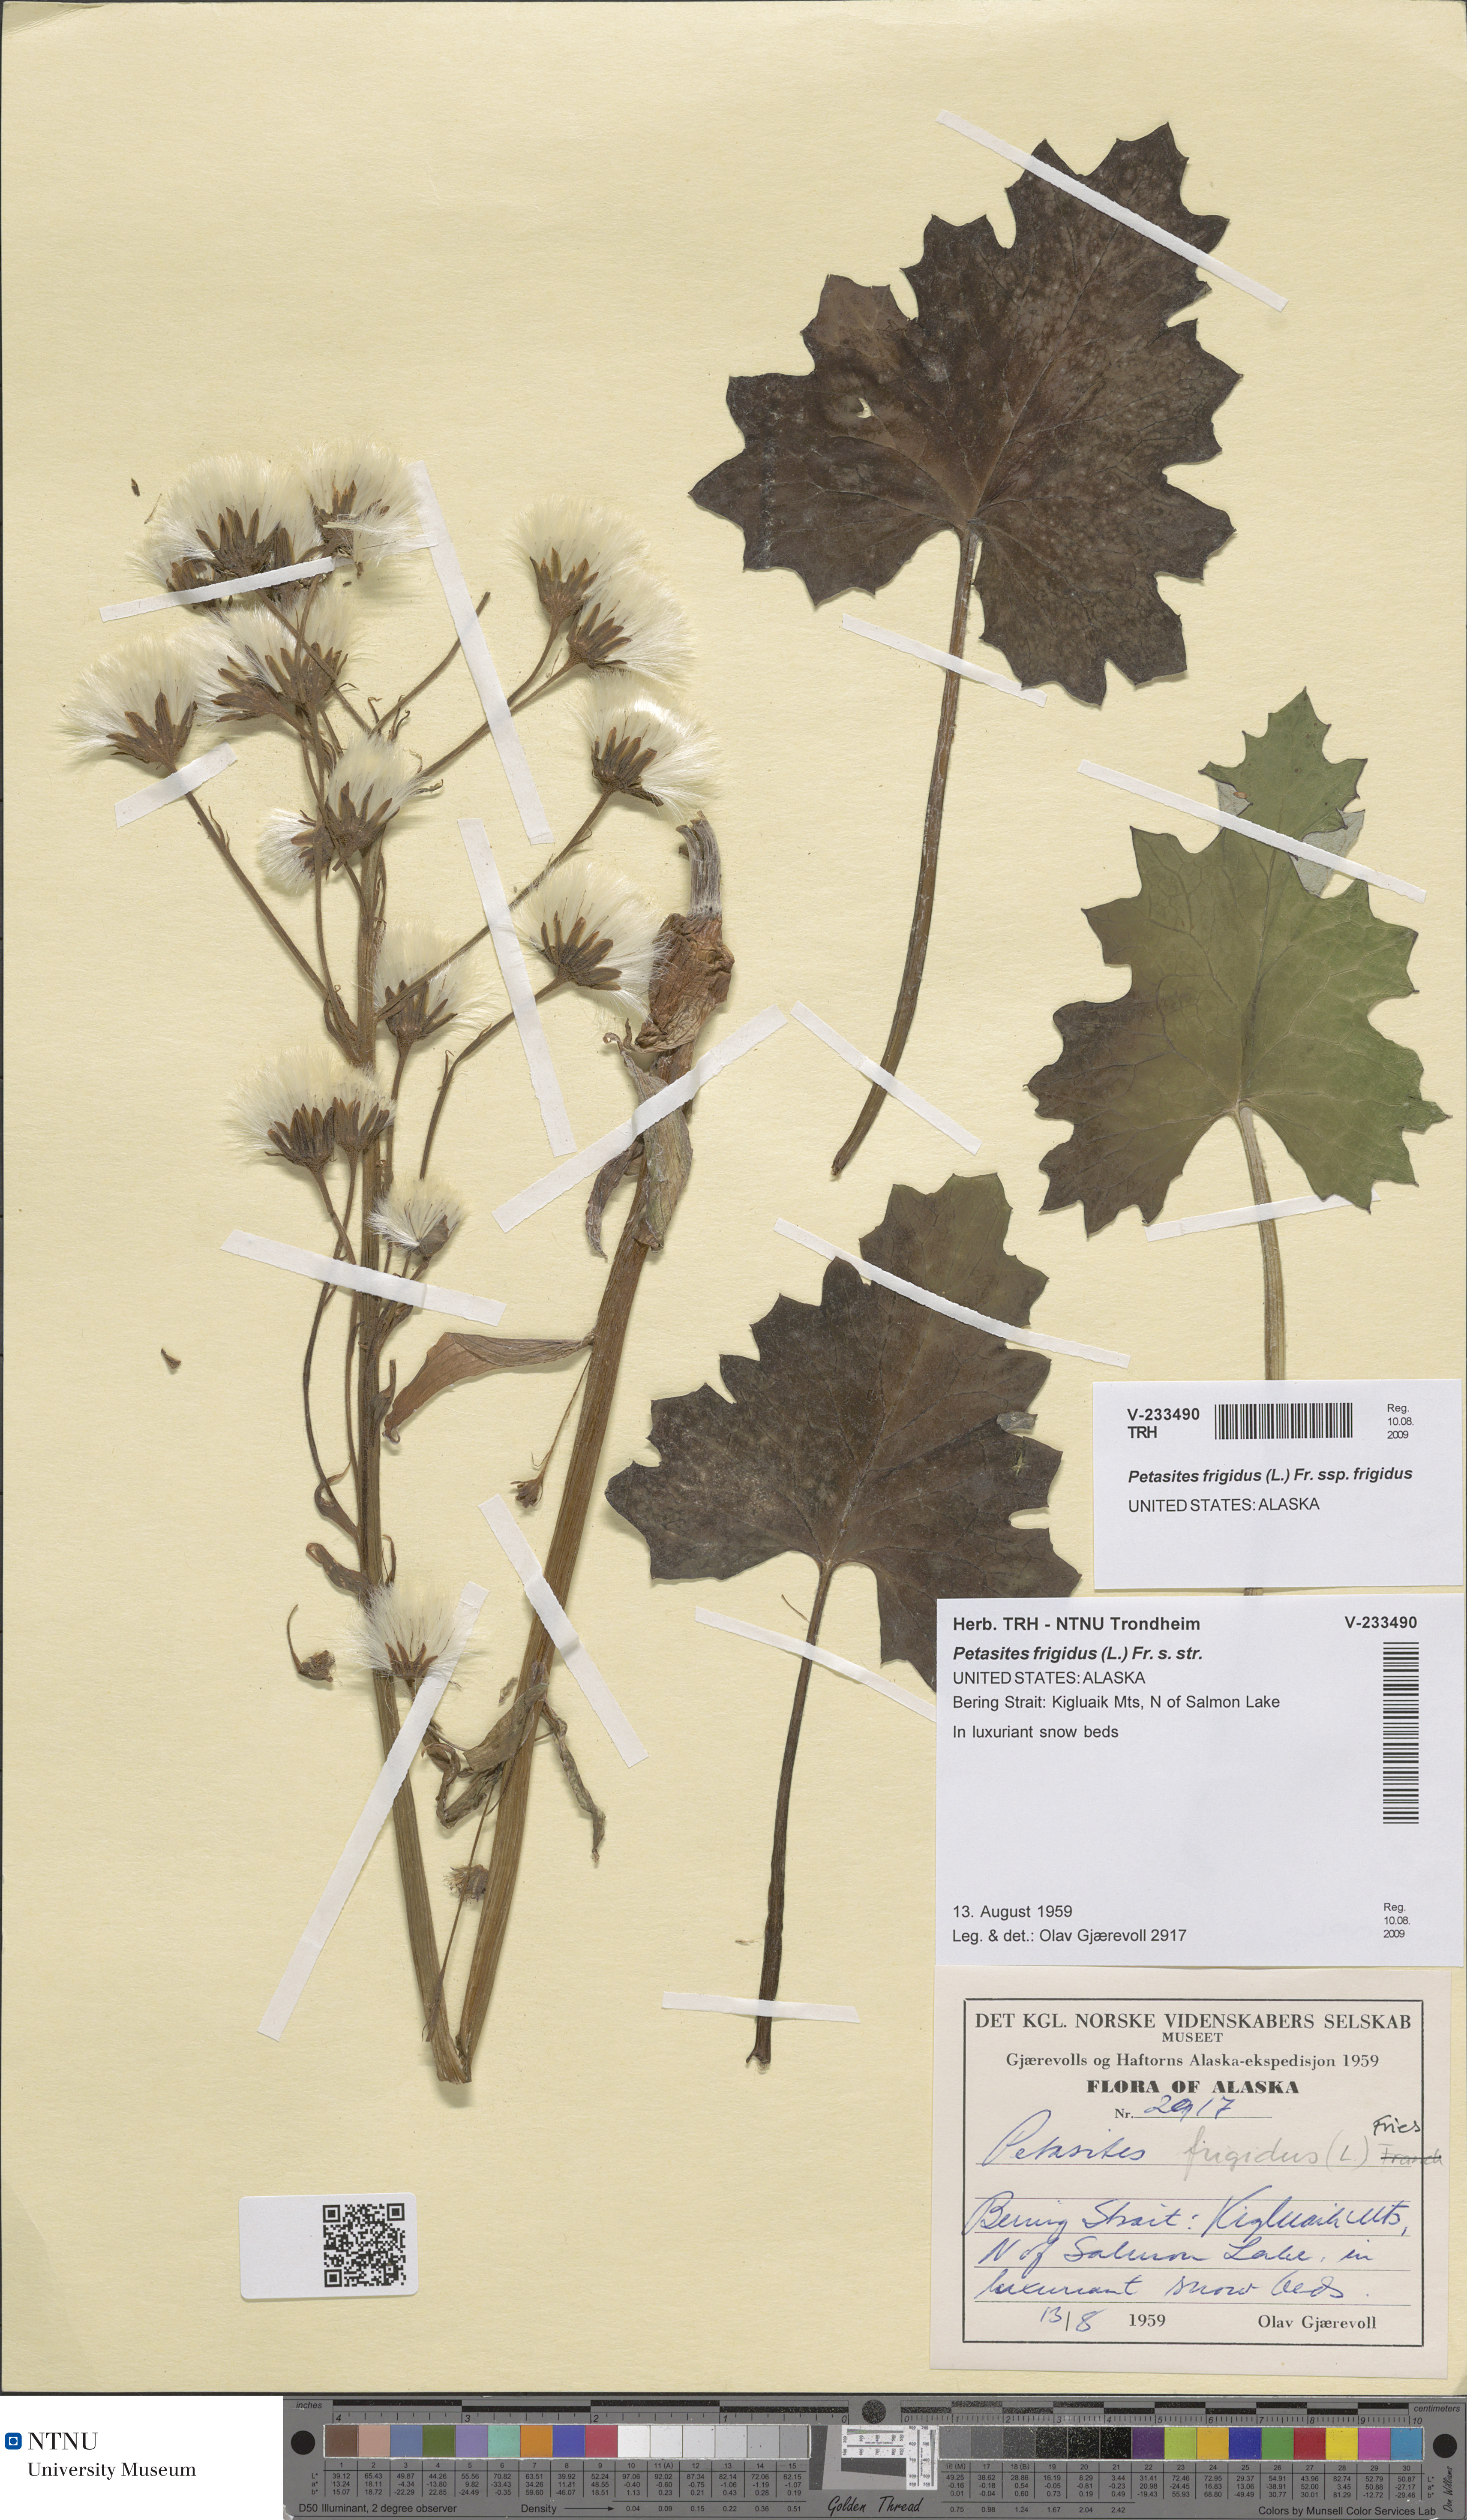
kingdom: Plantae
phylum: Tracheophyta
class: Magnoliopsida
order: Asterales
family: Asteraceae
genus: Petasites
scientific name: Petasites frigidus
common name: Arctic butterbur
